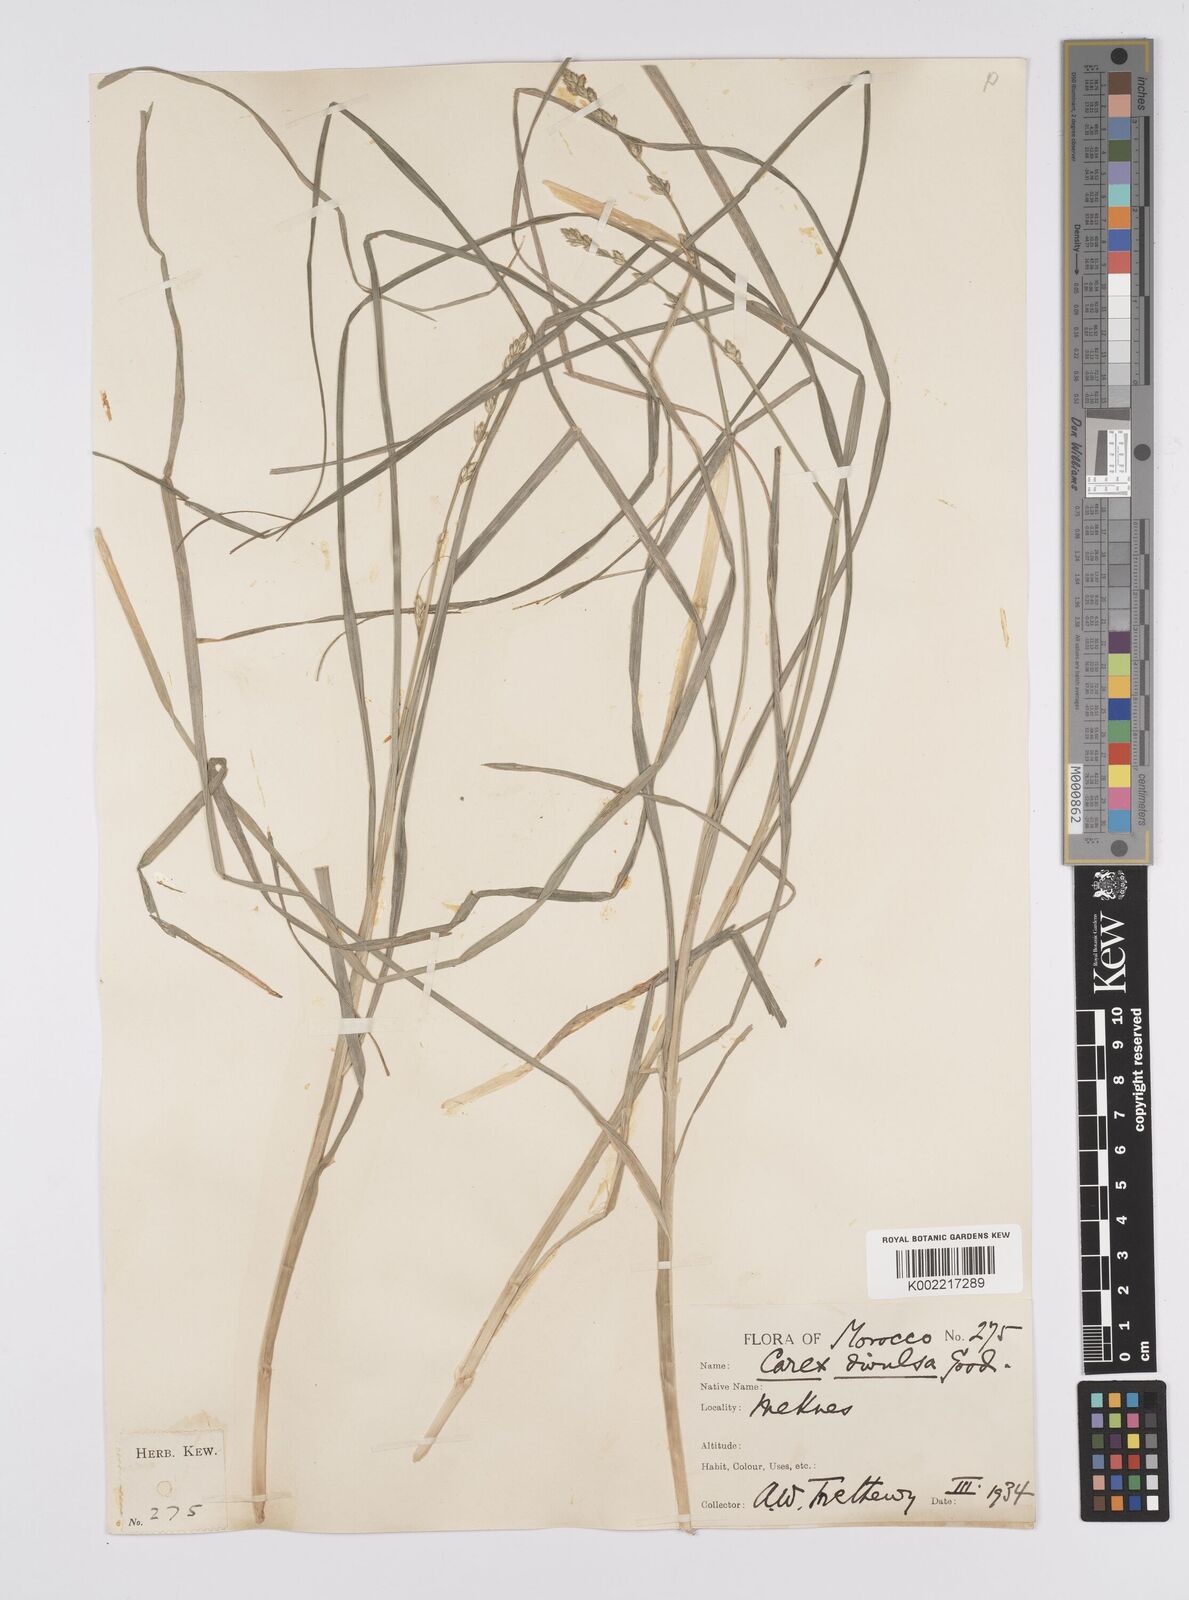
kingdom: Plantae
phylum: Tracheophyta
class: Liliopsida
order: Poales
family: Cyperaceae
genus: Carex
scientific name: Carex muricata
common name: Rough sedge
